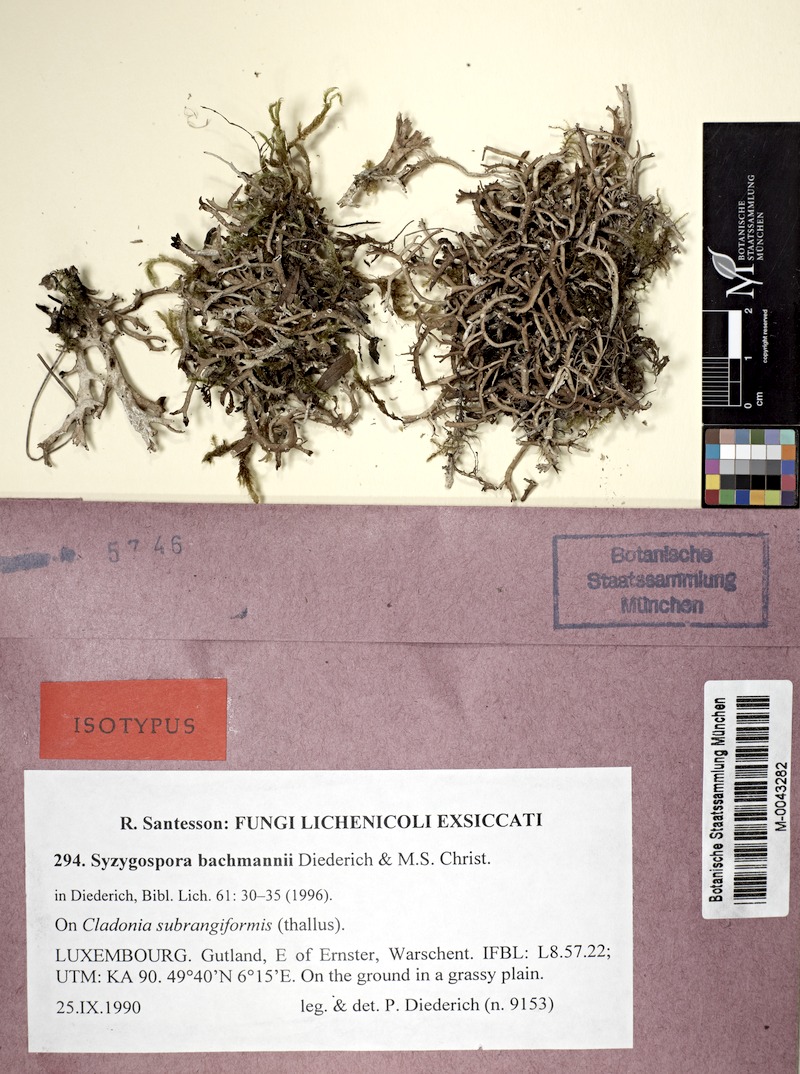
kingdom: Fungi
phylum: Ascomycota
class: Lecanoromycetes
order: Lecanorales
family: Cladoniaceae
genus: Cladonia
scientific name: Cladonia furcata
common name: Many-forked cladonia
